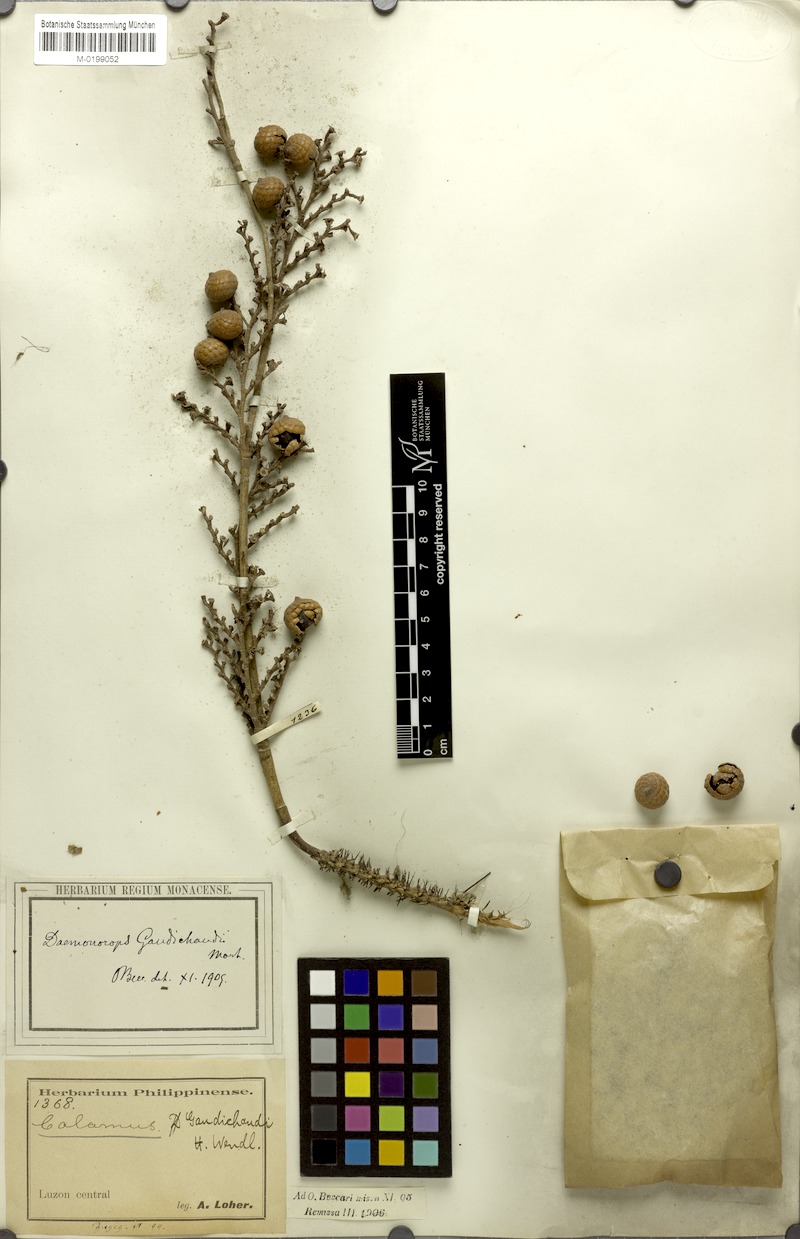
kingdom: Plantae
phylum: Tracheophyta
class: Liliopsida
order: Arecales
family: Arecaceae
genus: Calamus
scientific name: Calamus oblongus
